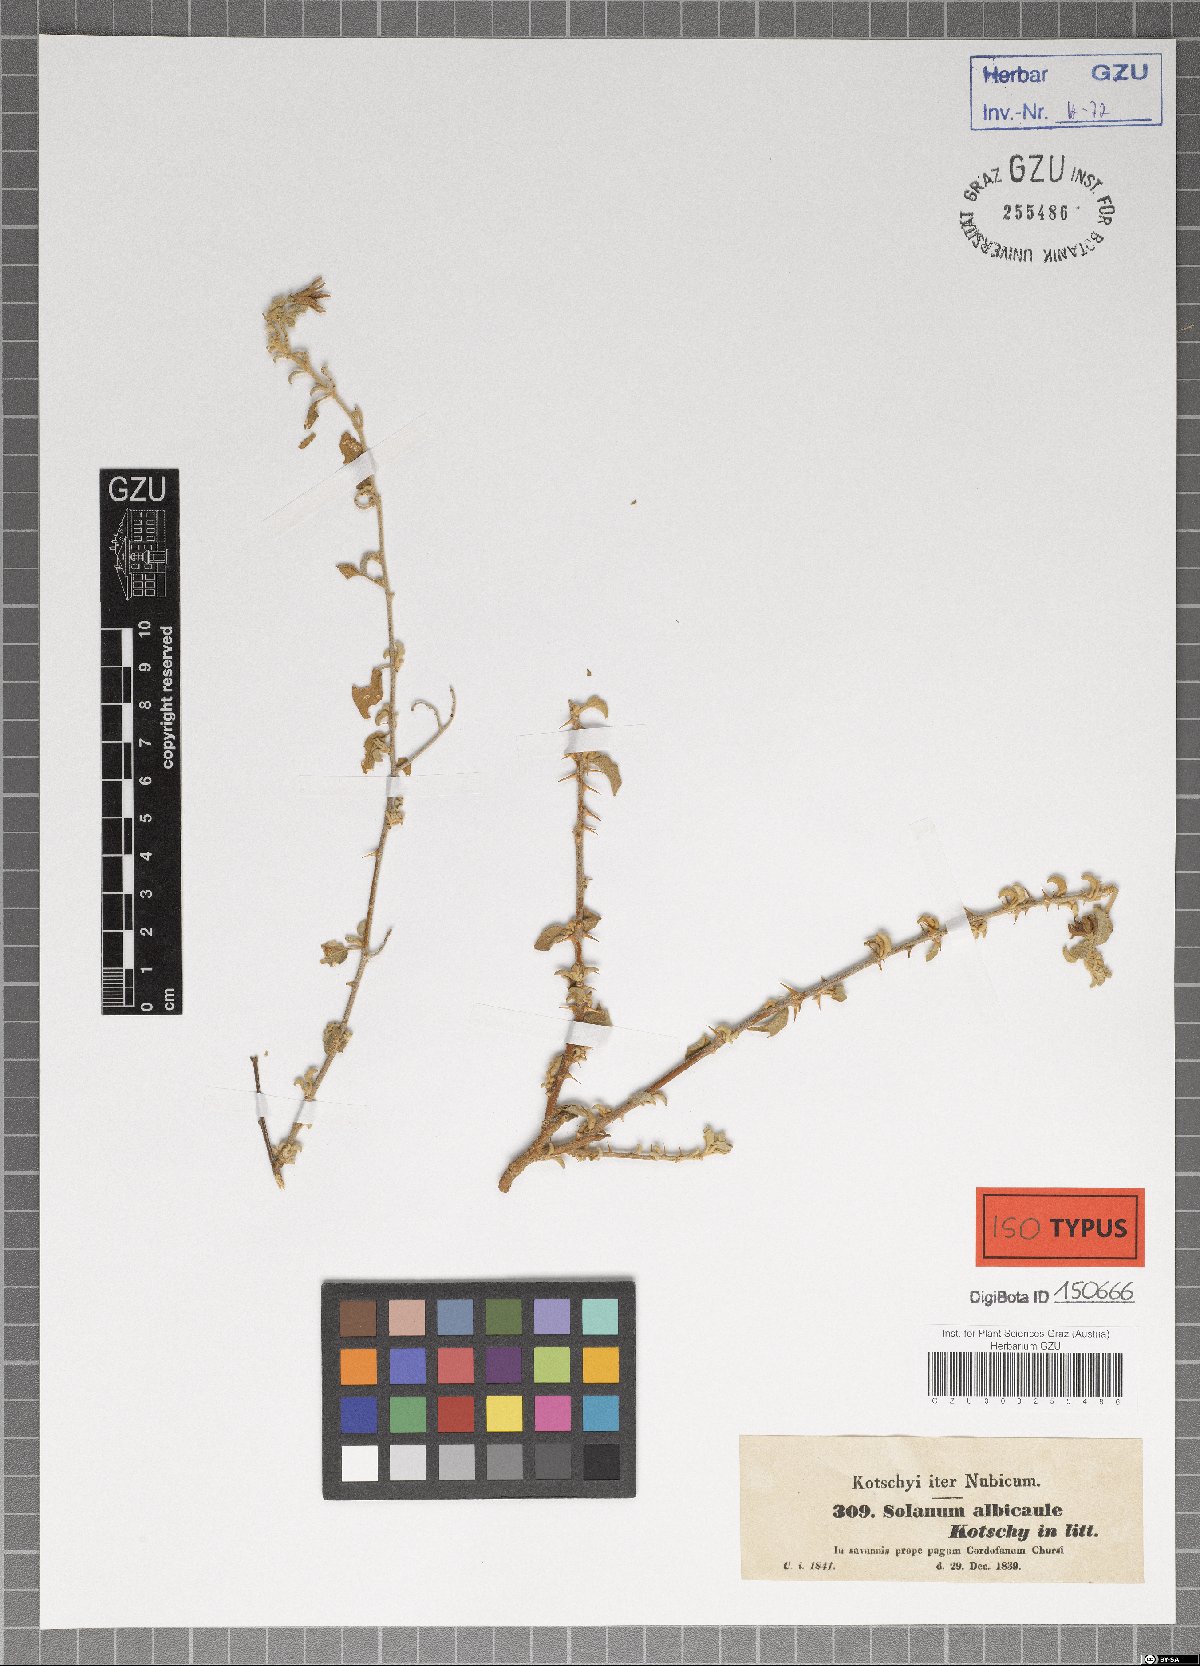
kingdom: Plantae
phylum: Tracheophyta
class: Magnoliopsida
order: Solanales
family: Solanaceae
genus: Solanum
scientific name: Solanum forsskaolii
